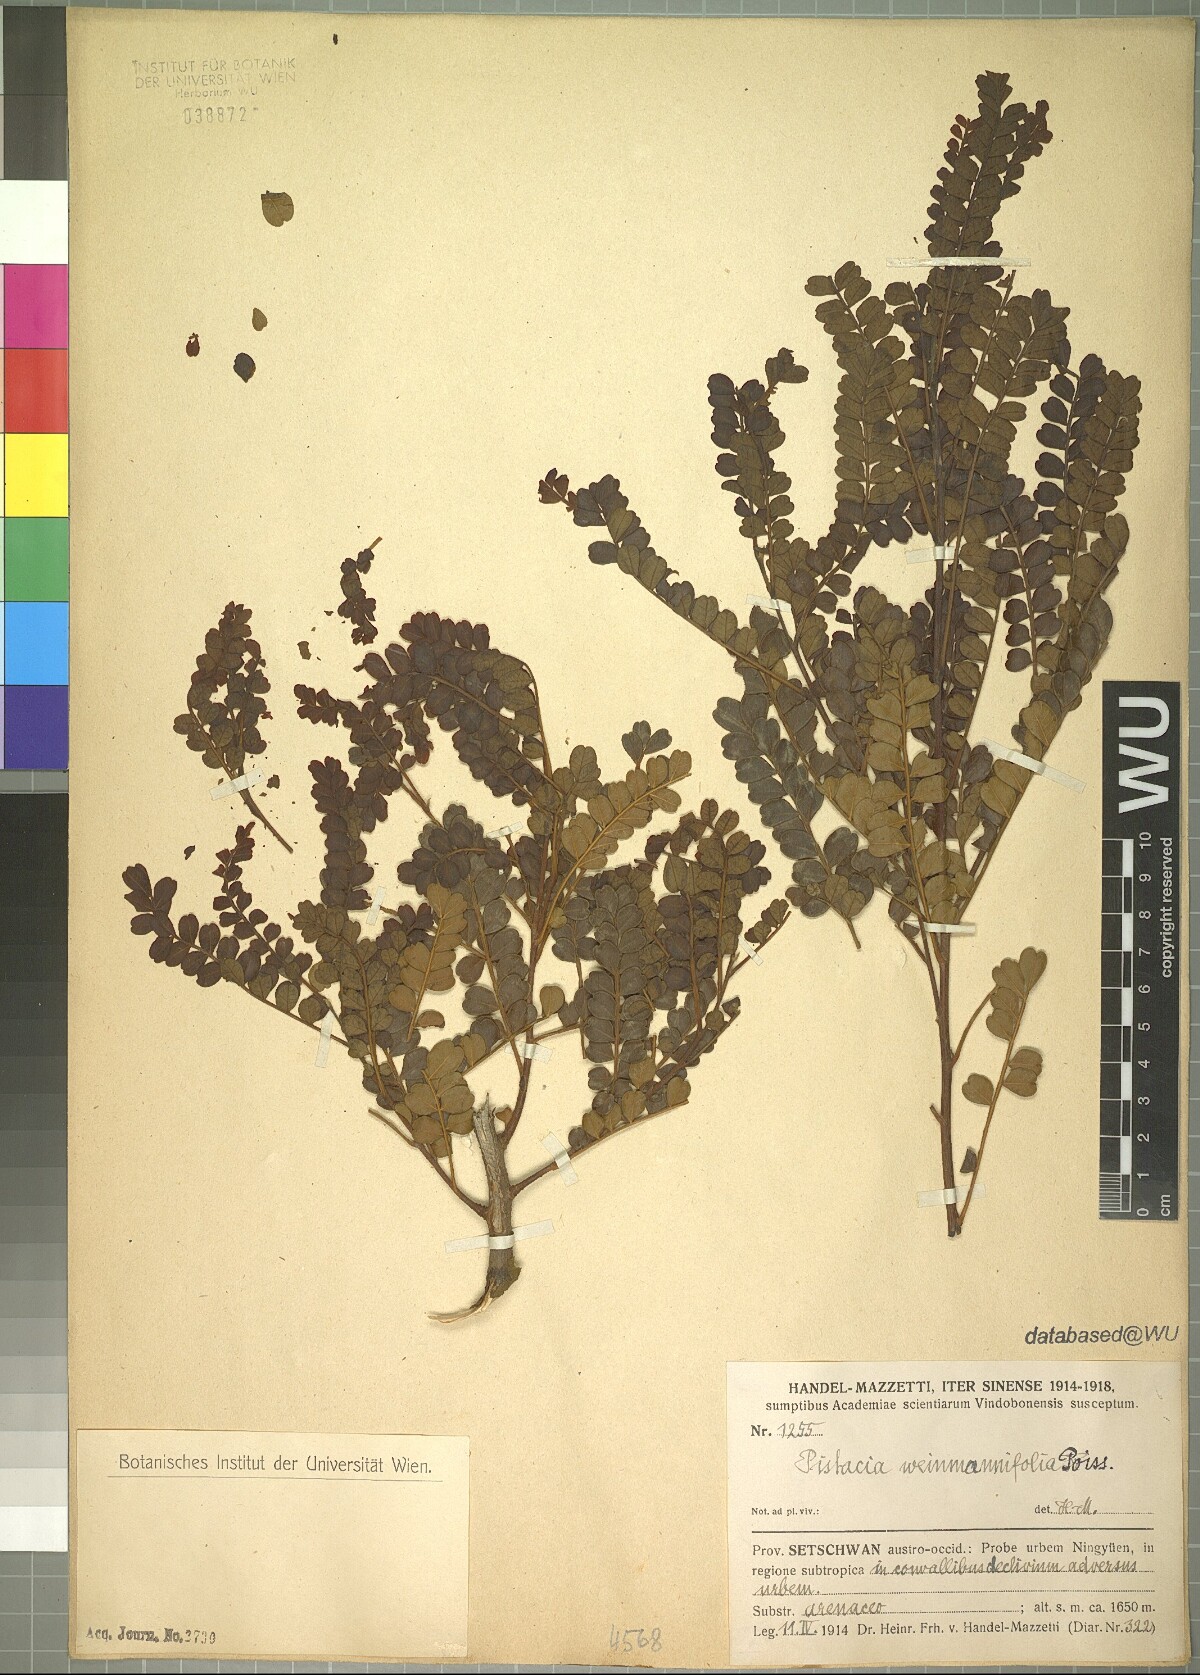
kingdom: Plantae
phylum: Tracheophyta
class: Magnoliopsida
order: Sapindales
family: Anacardiaceae
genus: Pistacia
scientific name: Pistacia weinmannifolia
